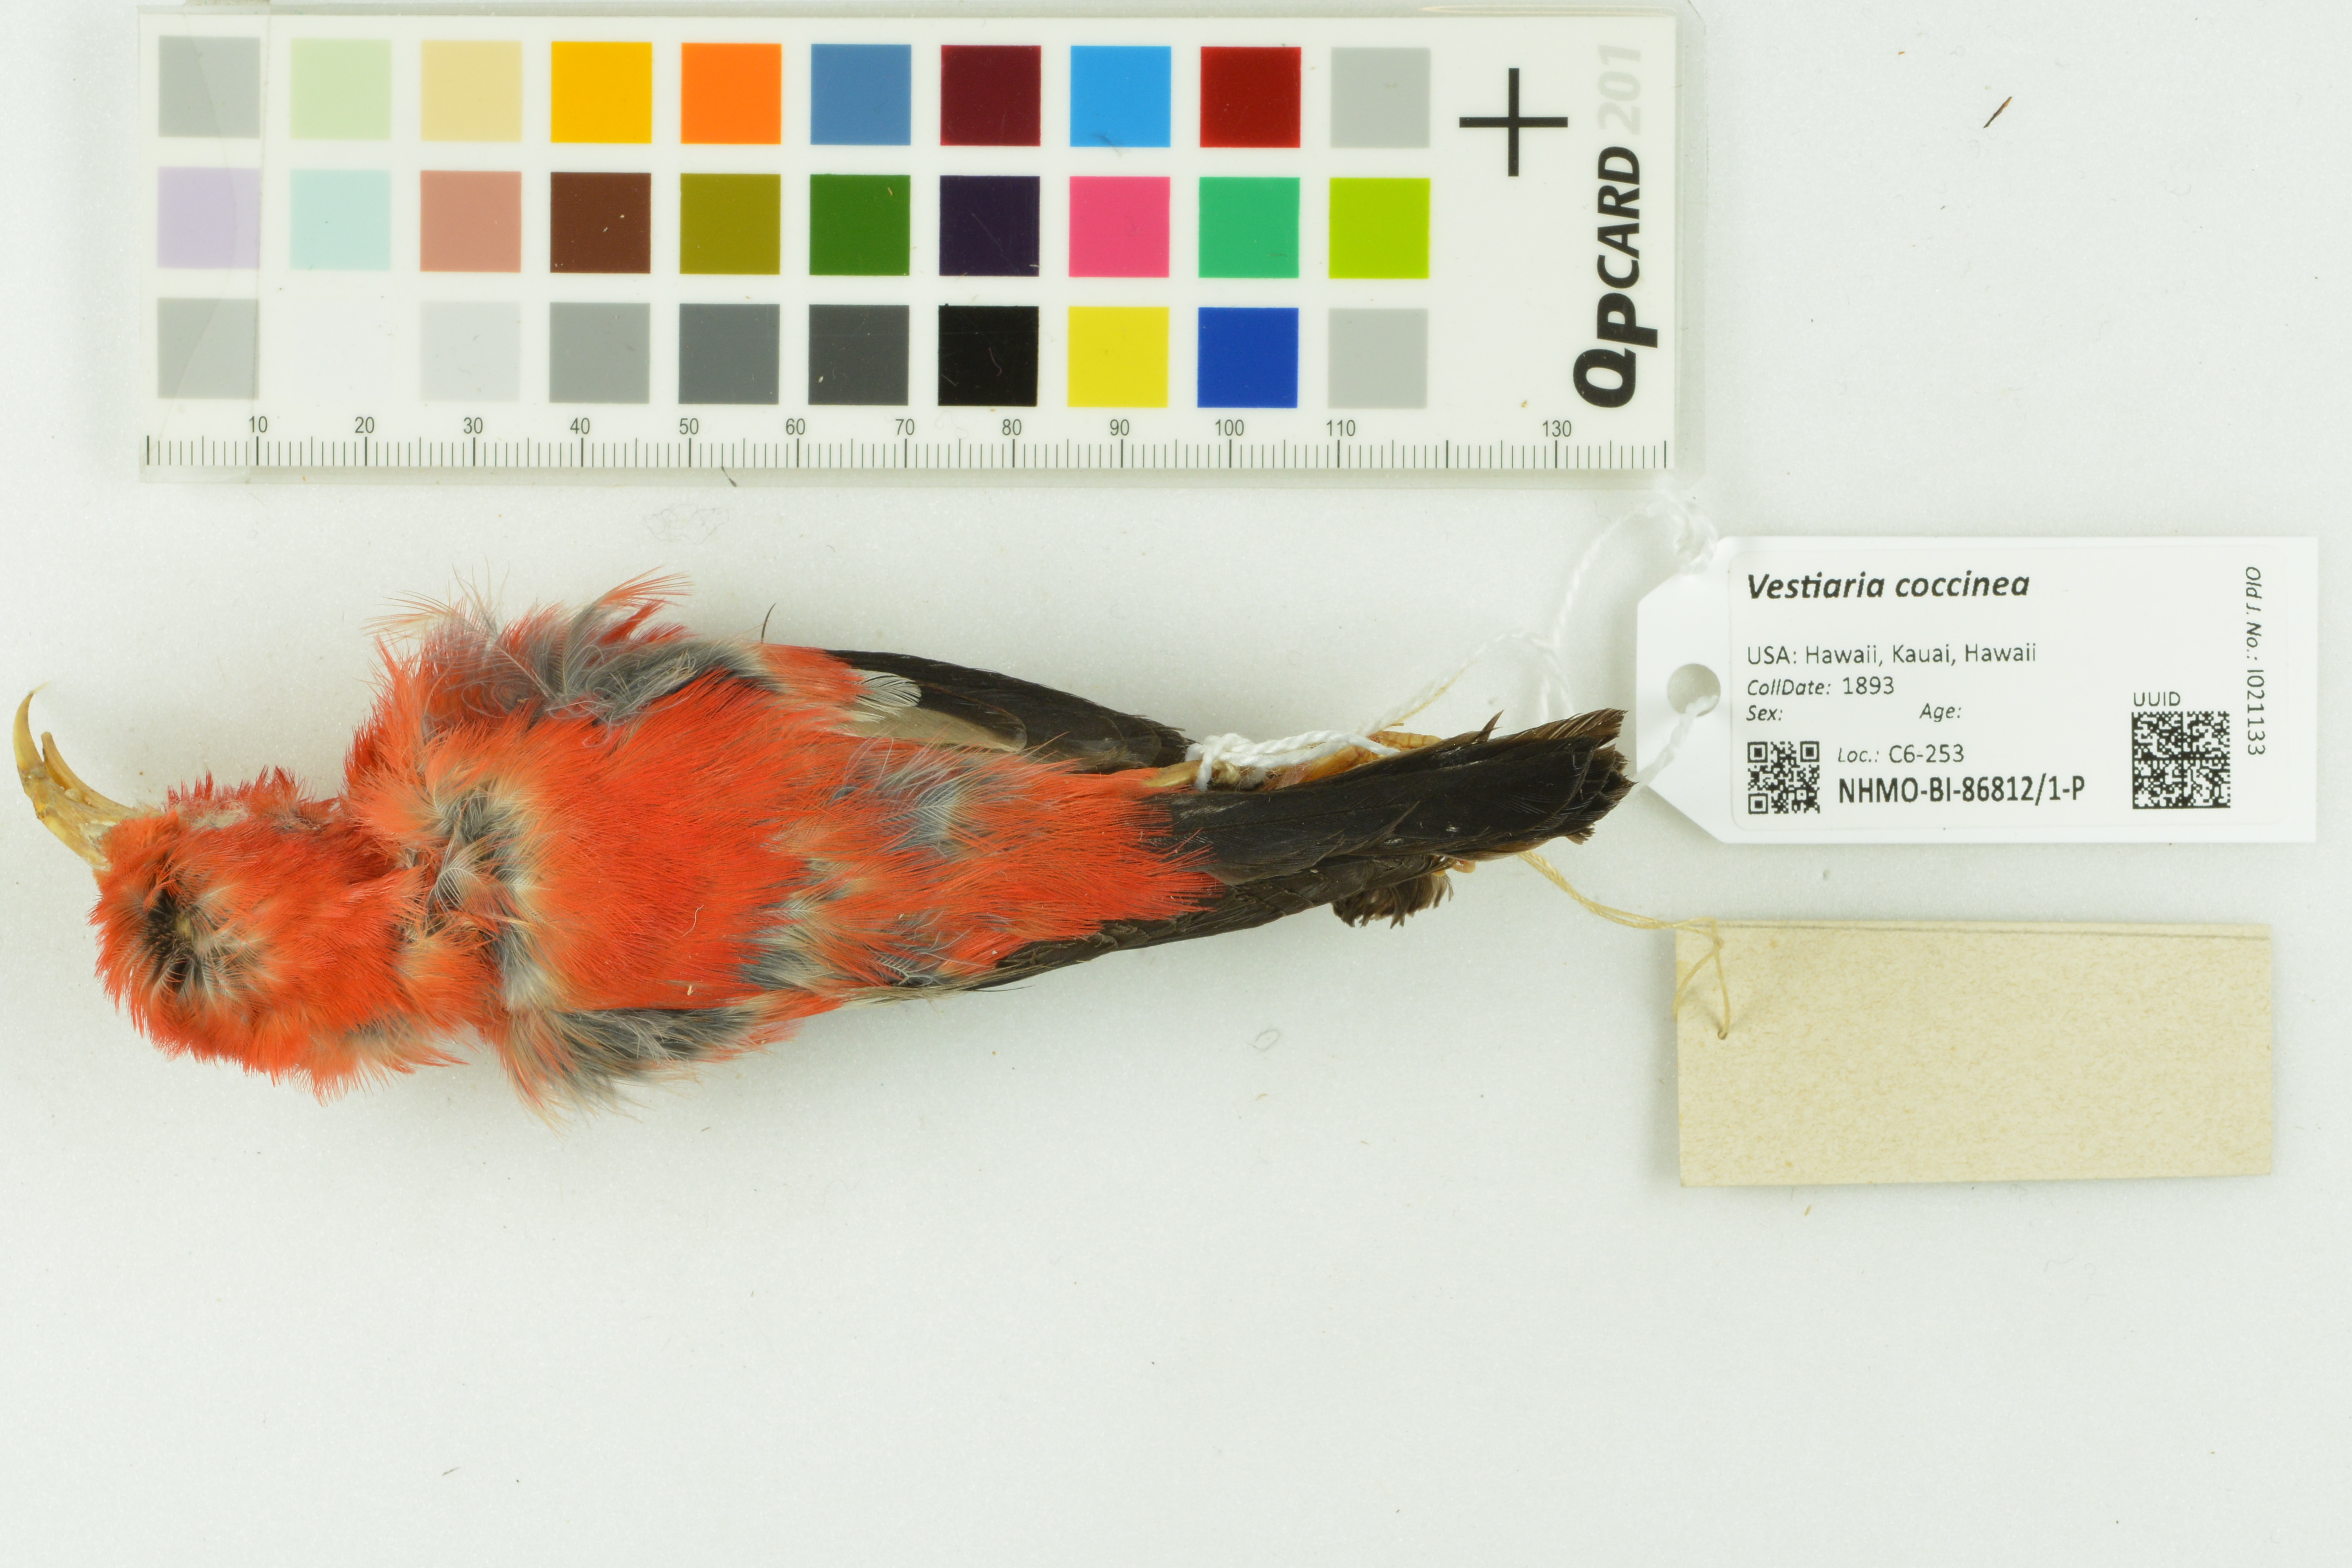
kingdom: Animalia
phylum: Chordata
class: Aves
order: Passeriformes
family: Fringillidae
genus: Vestiaria
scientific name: Vestiaria coccinea
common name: Iiwi
